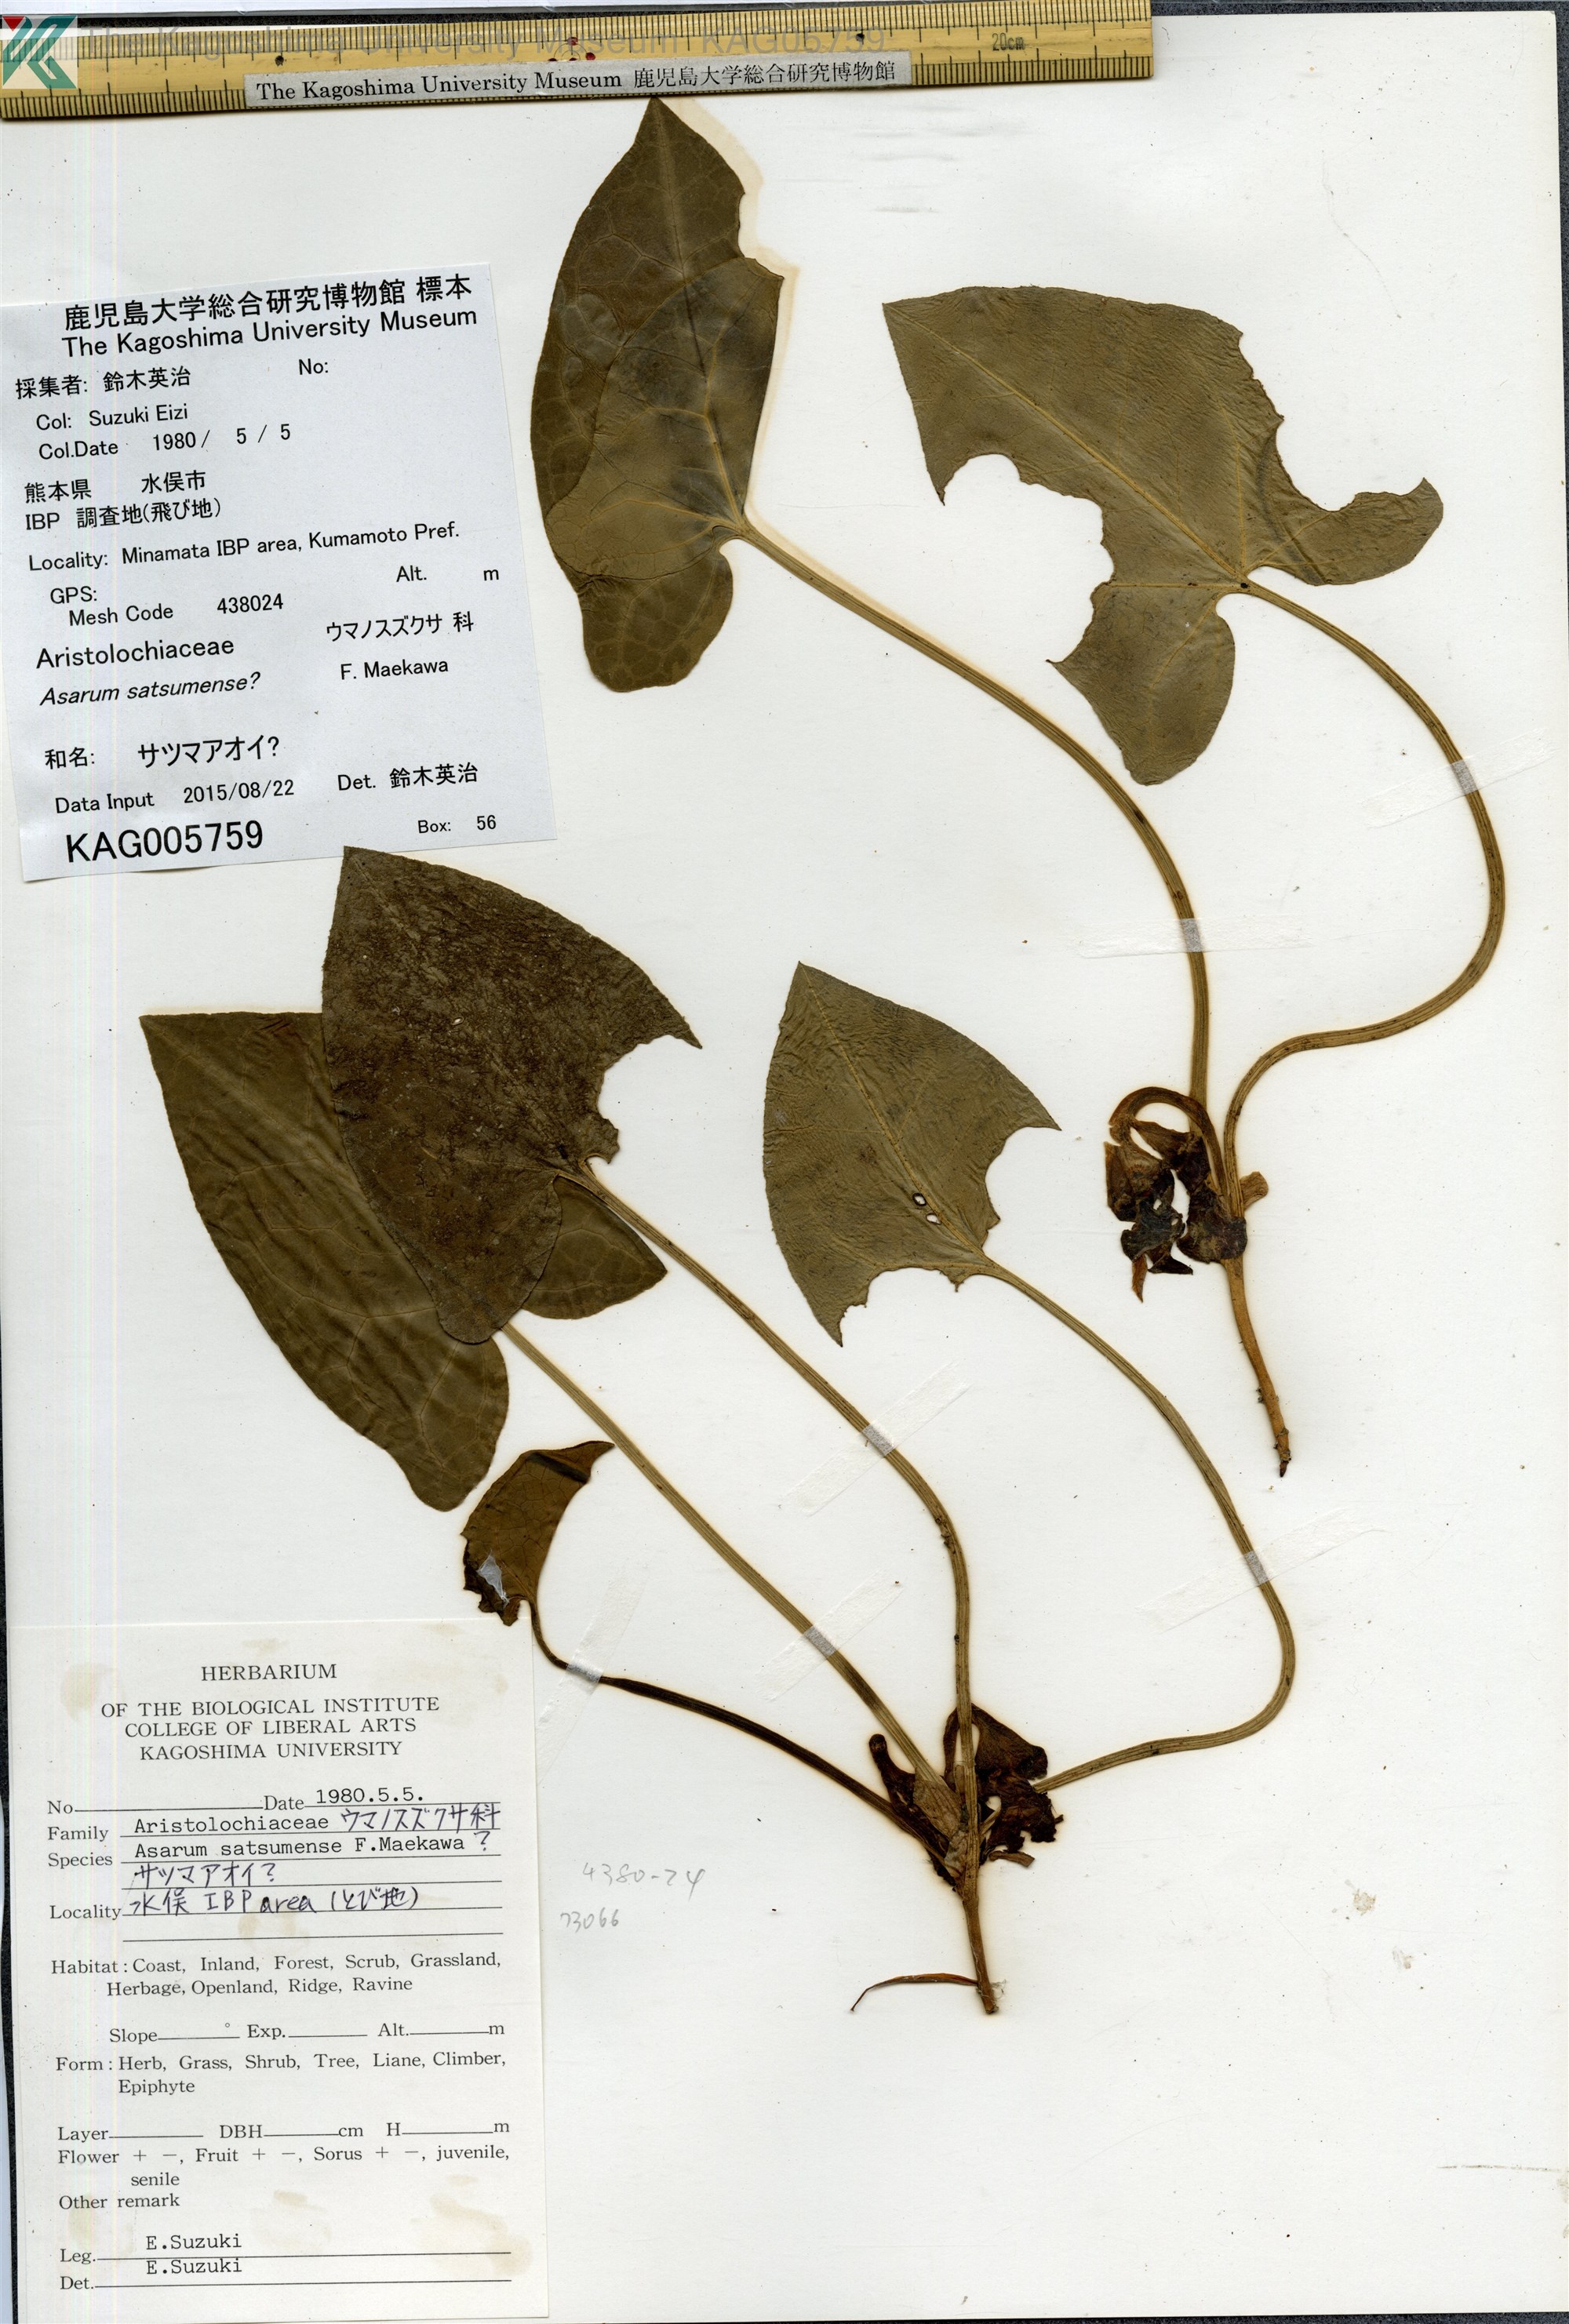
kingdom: Plantae
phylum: Tracheophyta
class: Magnoliopsida
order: Piperales
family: Aristolochiaceae
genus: Asarum
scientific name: Asarum
